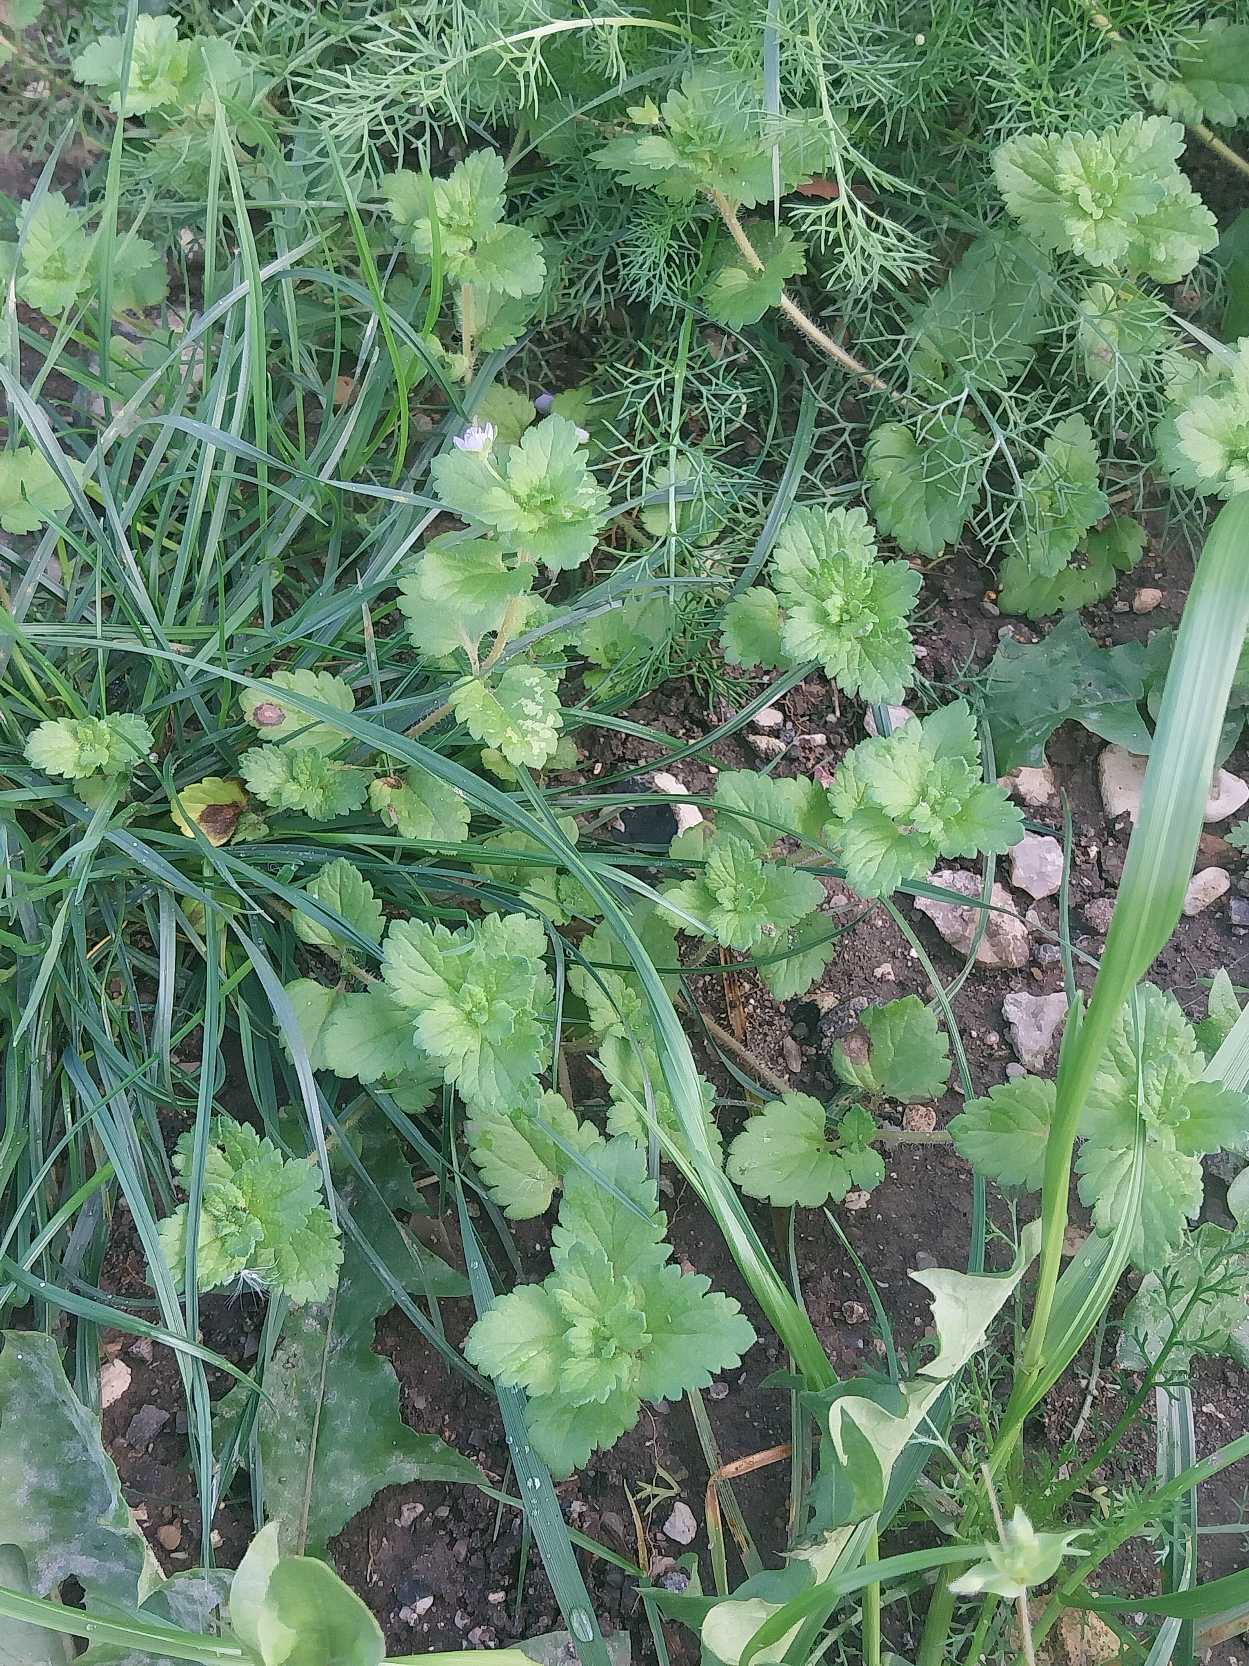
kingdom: Plantae
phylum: Tracheophyta
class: Magnoliopsida
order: Lamiales
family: Plantaginaceae
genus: Veronica
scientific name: Veronica persica
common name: Storkronet ærenpris
